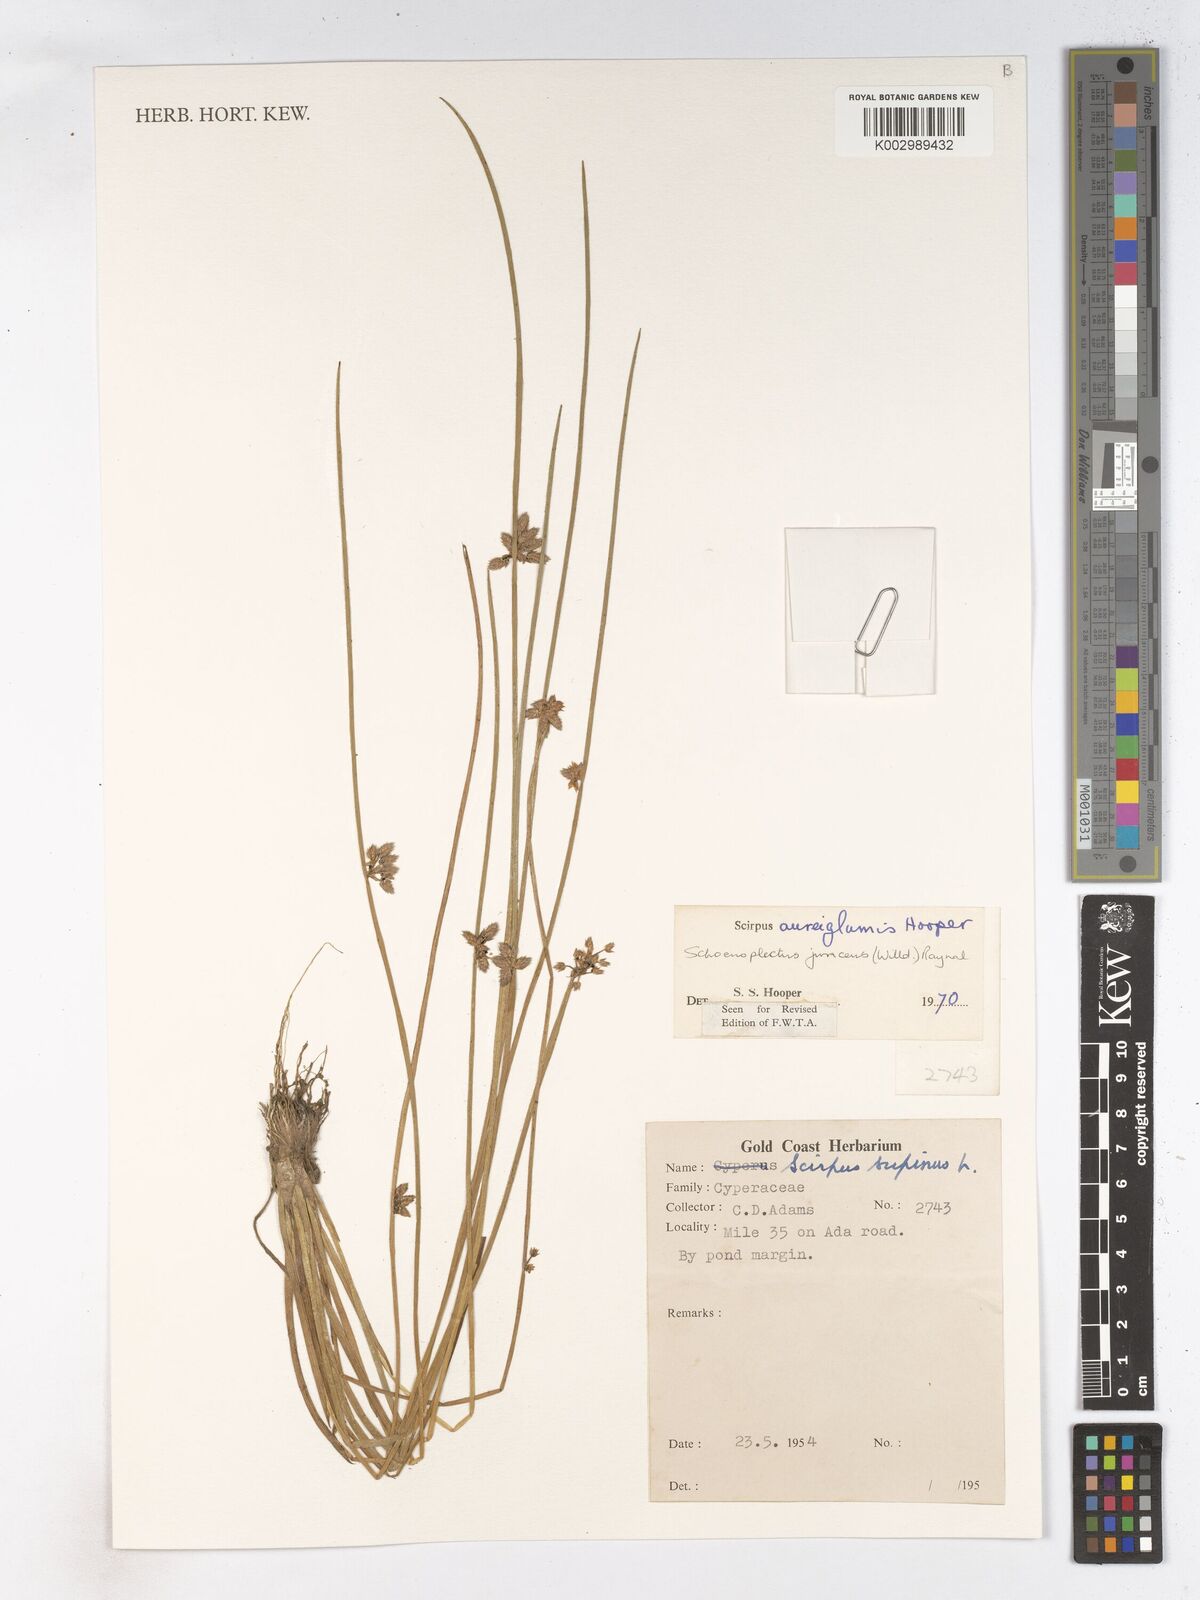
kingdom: Plantae
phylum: Tracheophyta
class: Liliopsida
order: Poales
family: Cyperaceae
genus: Schoenoplectiella
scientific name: Schoenoplectiella juncea
